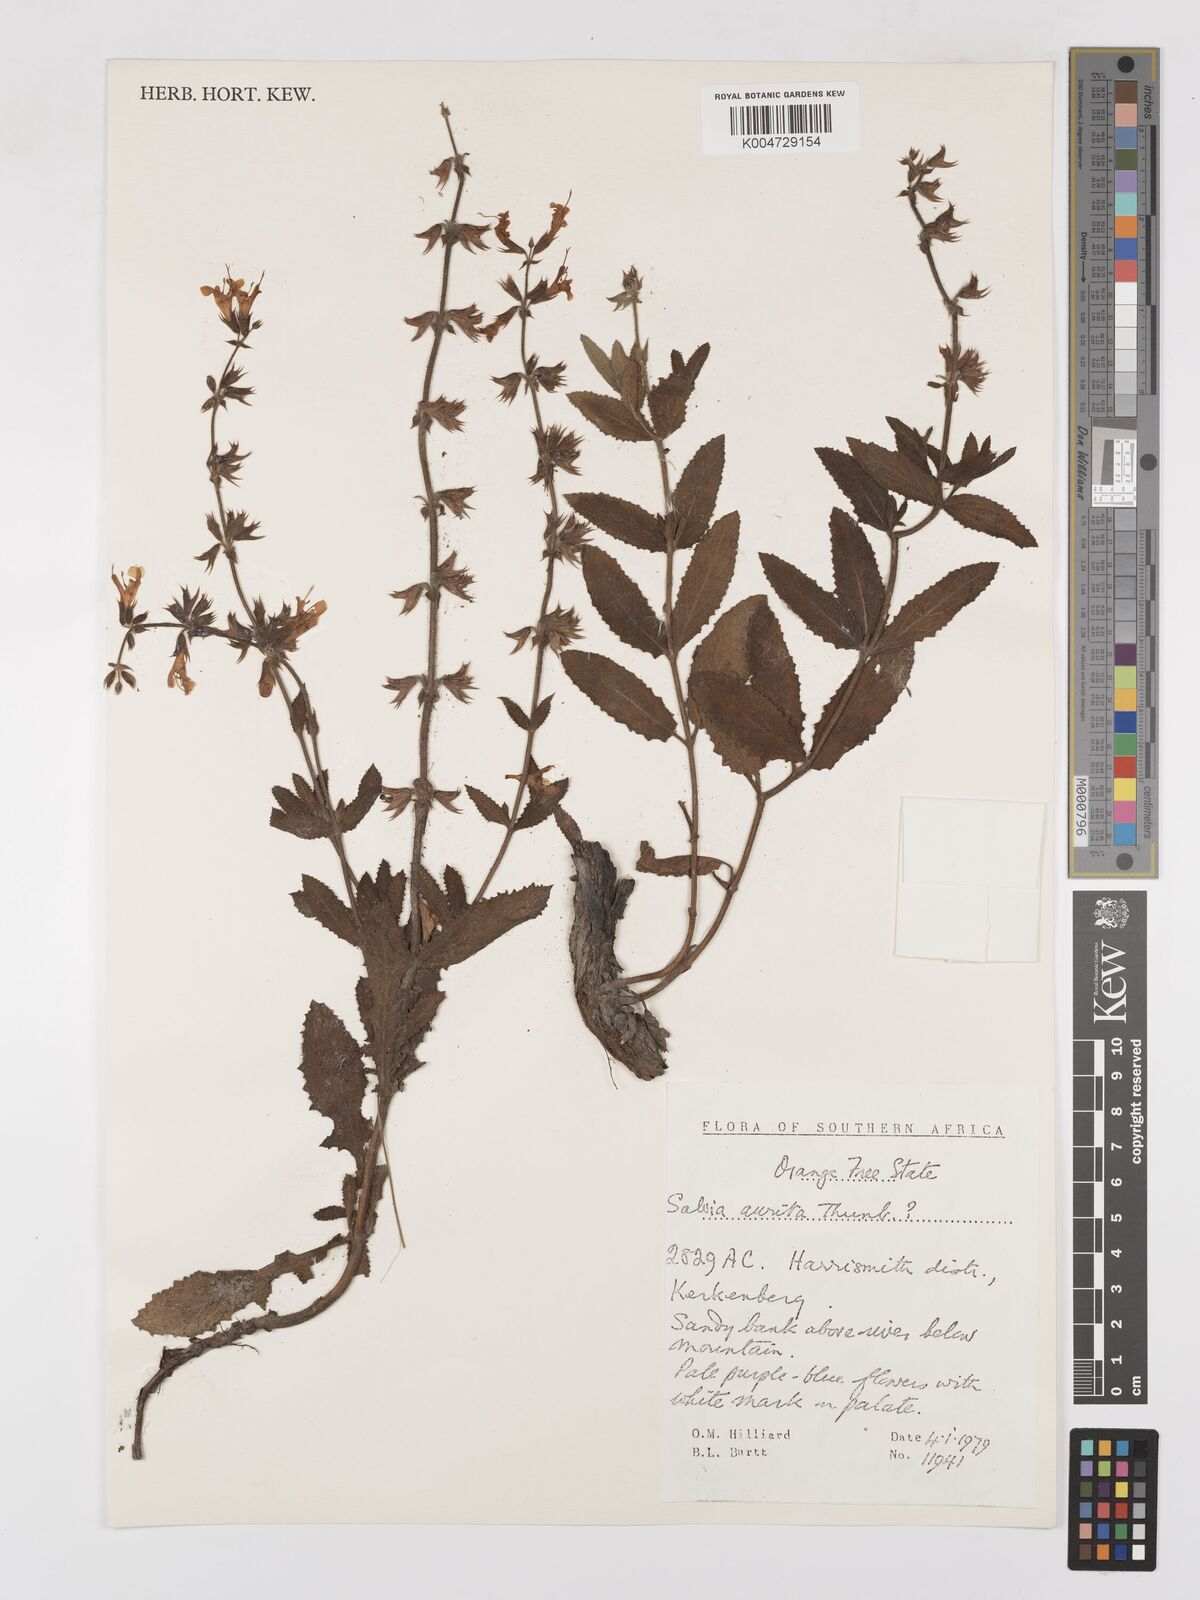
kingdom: Plantae
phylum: Tracheophyta
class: Magnoliopsida
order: Lamiales
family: Lamiaceae
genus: Salvia
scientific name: Salvia aurita
